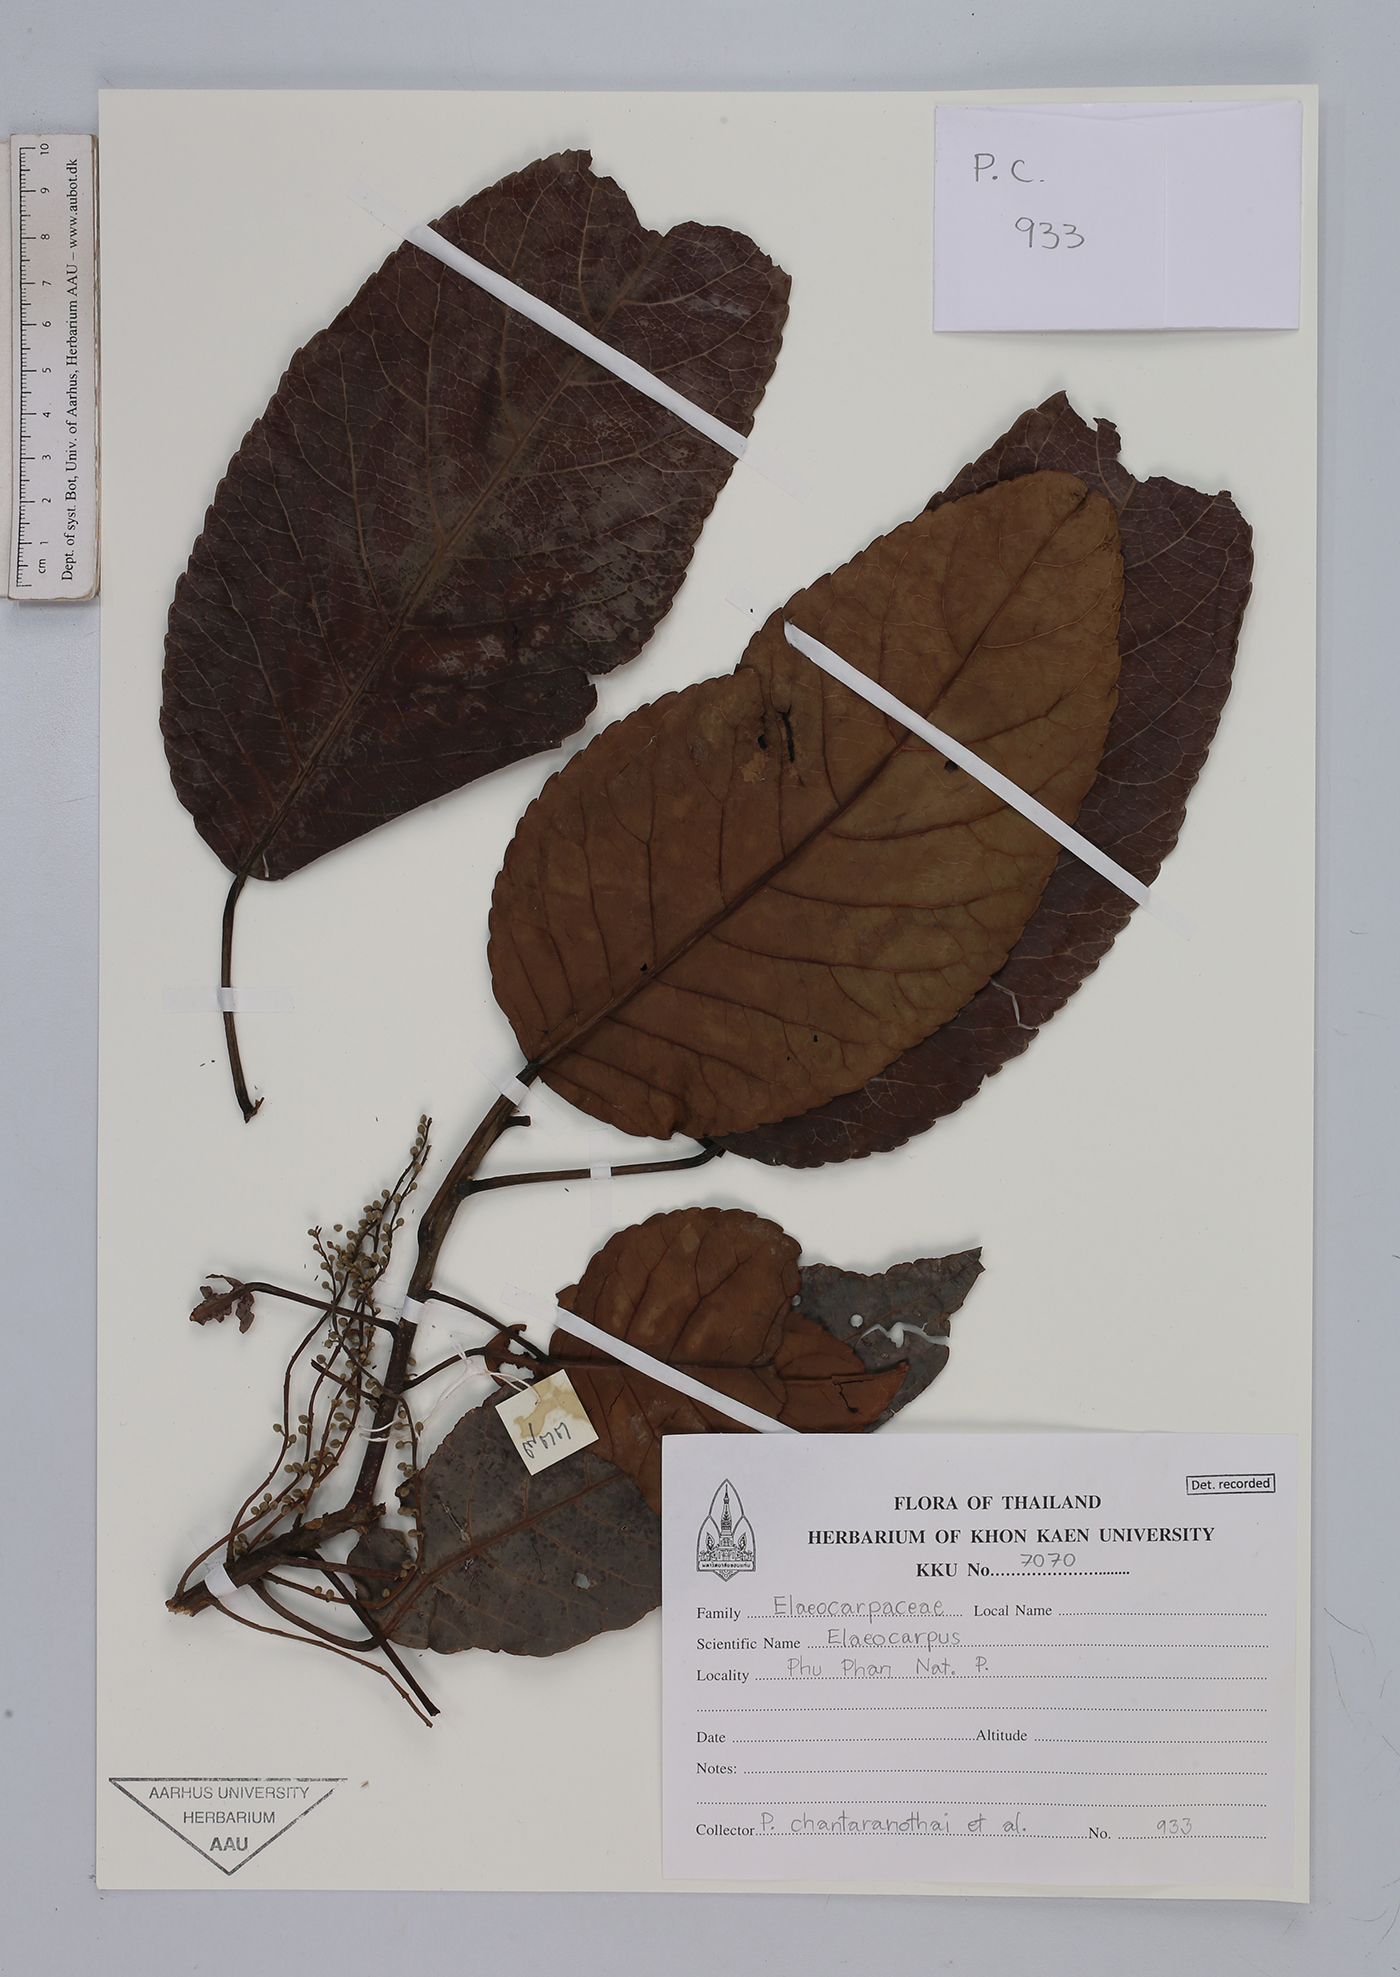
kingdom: Plantae
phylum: Tracheophyta
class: Magnoliopsida
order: Oxalidales
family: Elaeocarpaceae
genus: Elaeocarpus
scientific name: Elaeocarpus
